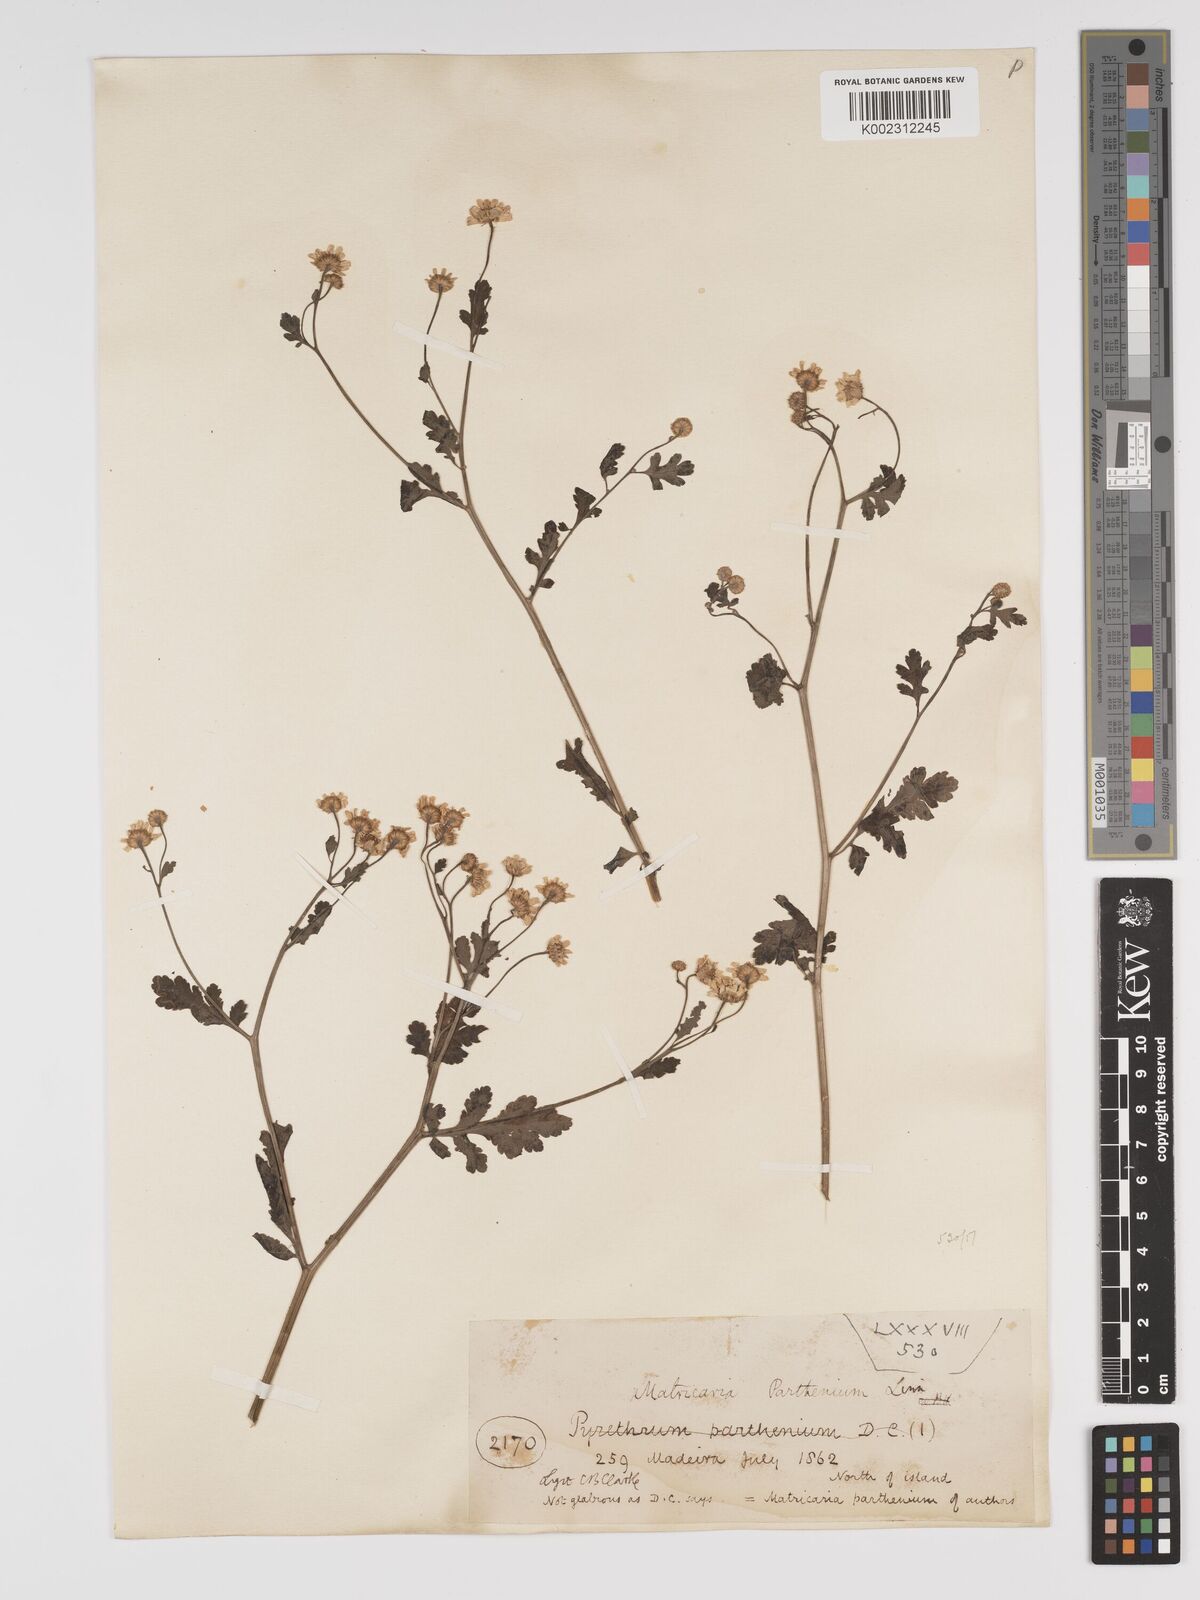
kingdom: Plantae
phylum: Tracheophyta
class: Magnoliopsida
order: Asterales
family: Asteraceae
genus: Tanacetum
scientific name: Tanacetum parthenium
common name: Feverfew
